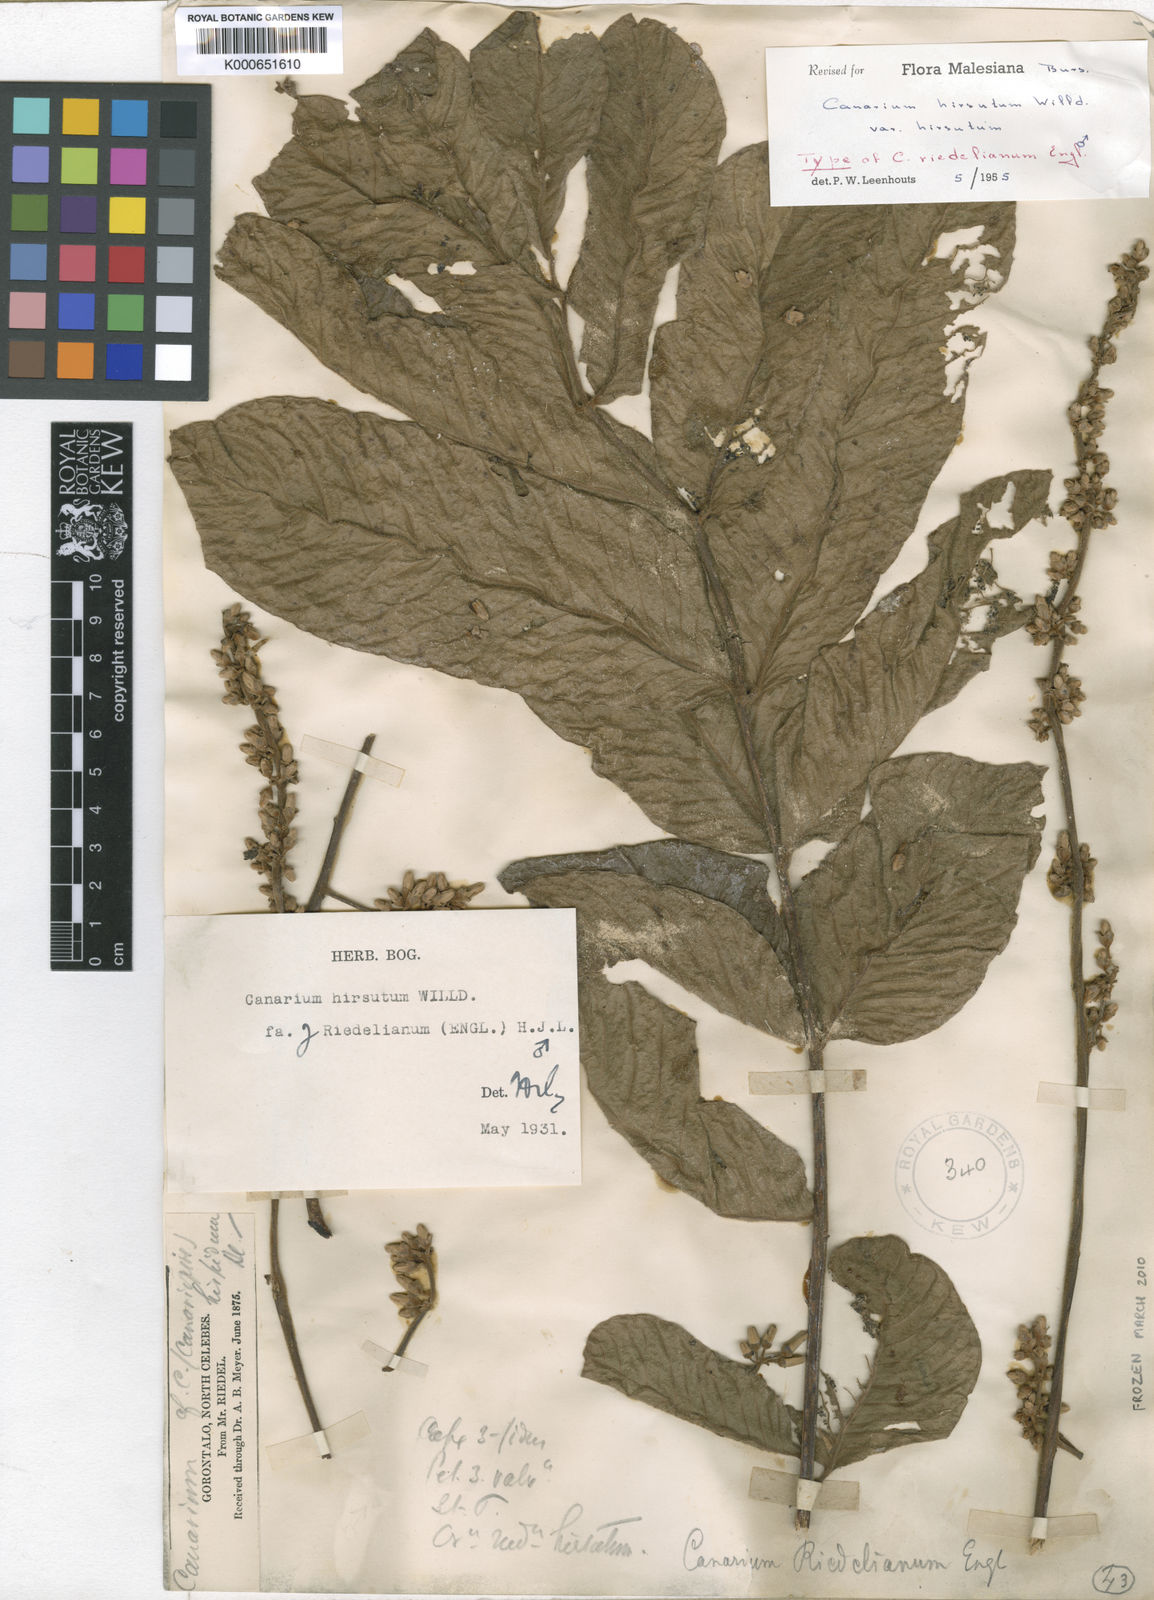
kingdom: Plantae
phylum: Tracheophyta
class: Magnoliopsida
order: Sapindales
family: Burseraceae
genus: Canarium
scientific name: Canarium hirsutum
